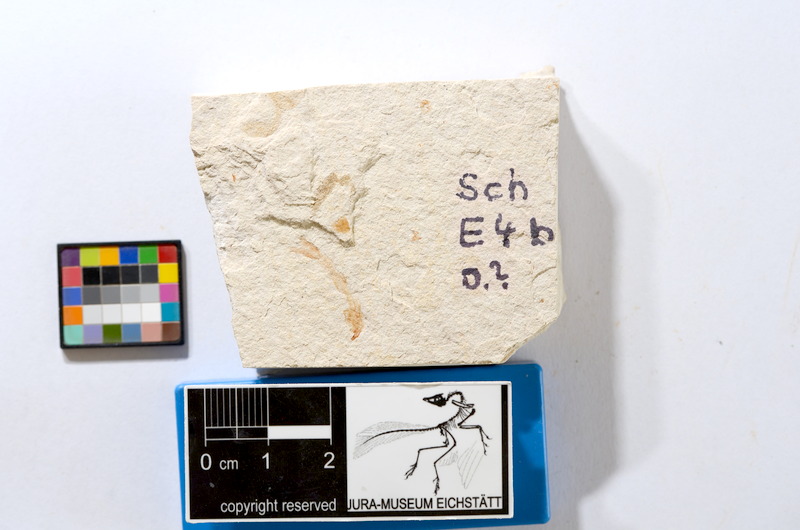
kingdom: Animalia
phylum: Chordata
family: Ascalaboidae
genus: Tharsis
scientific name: Tharsis dubius
